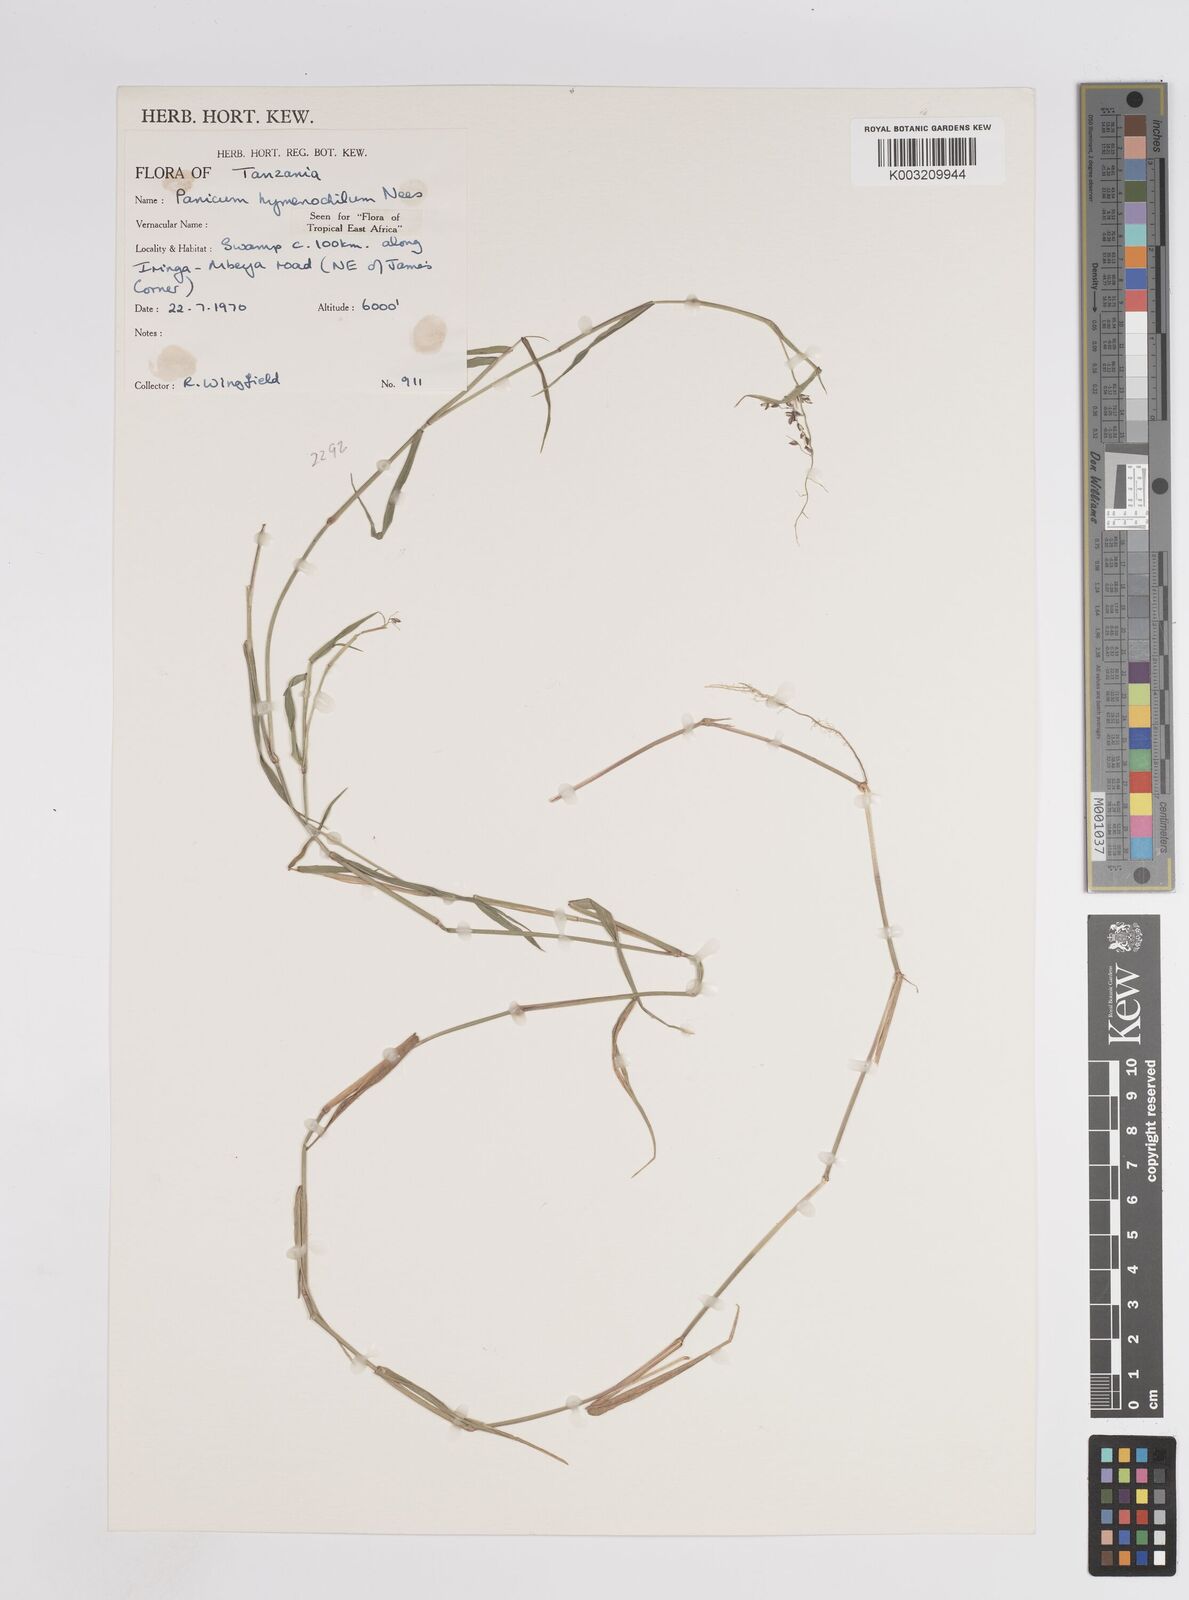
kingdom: Plantae
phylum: Tracheophyta
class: Liliopsida
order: Poales
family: Poaceae
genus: Adenochloa
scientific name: Adenochloa hymeniochila
